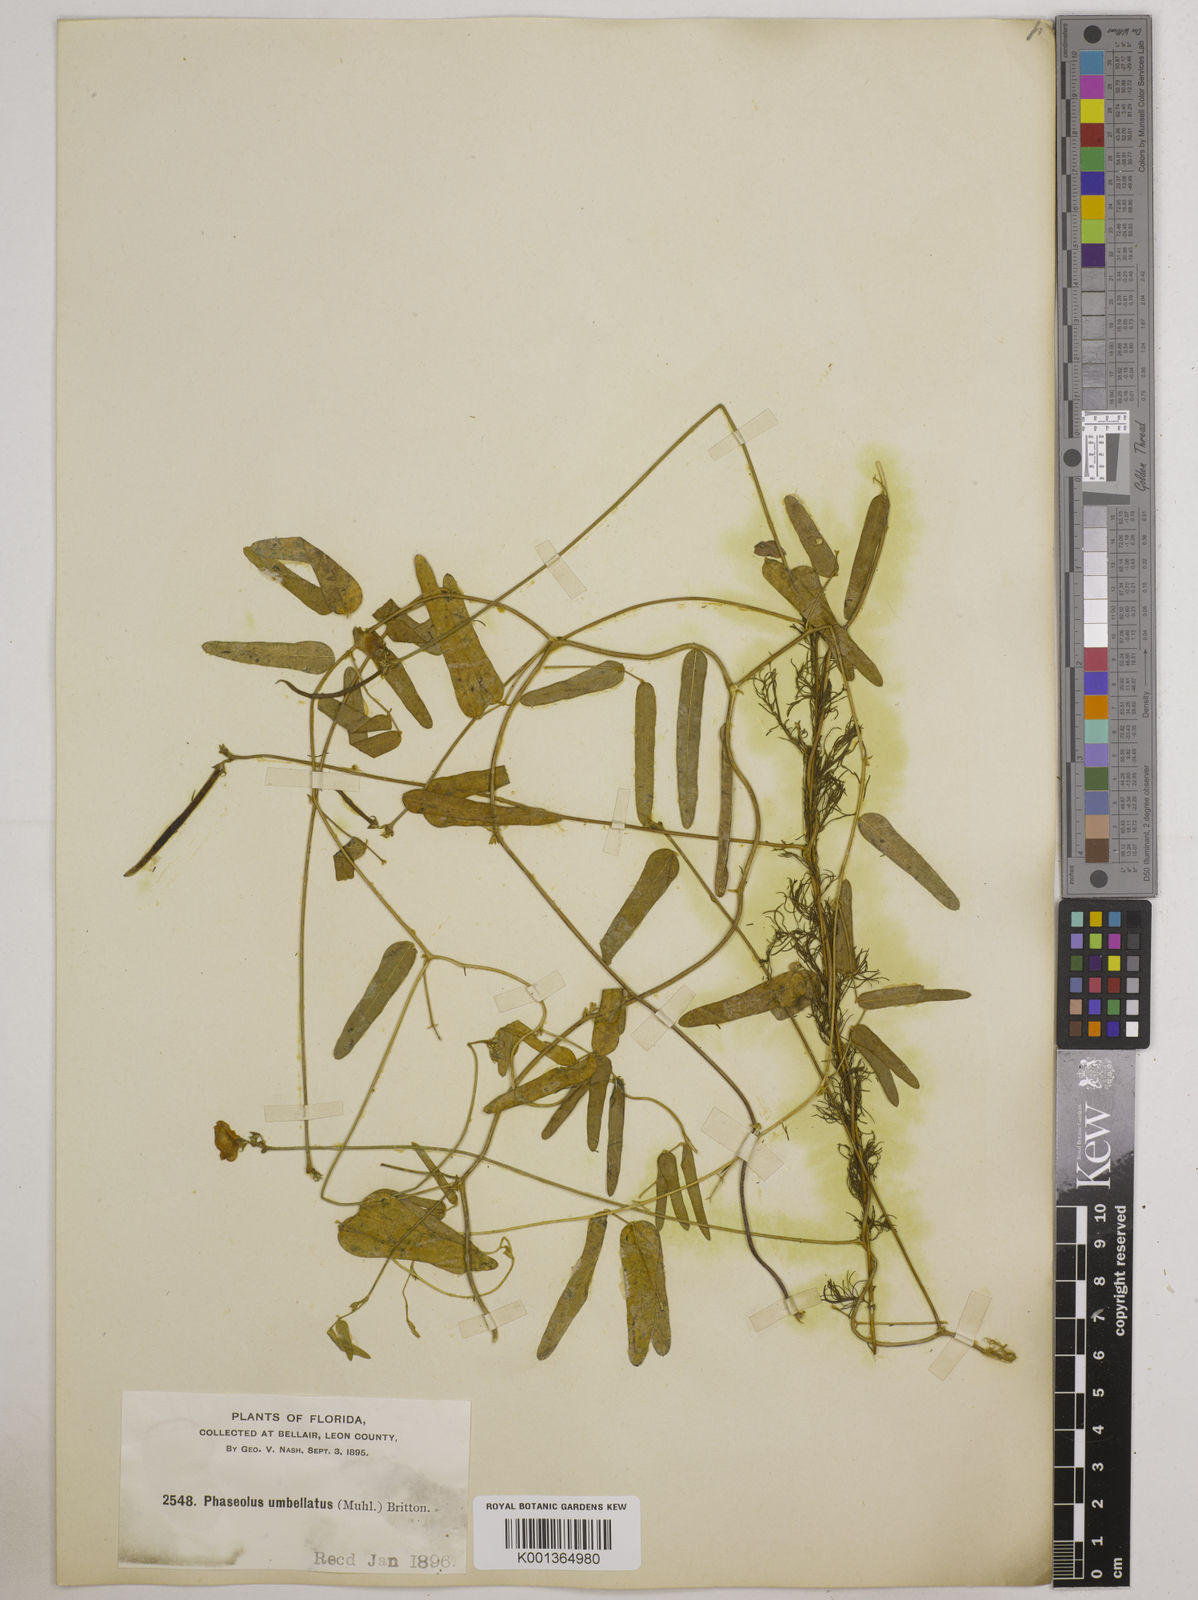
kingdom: Plantae
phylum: Tracheophyta
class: Magnoliopsida
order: Fabales
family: Fabaceae
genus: Strophostyles
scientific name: Strophostyles umbellata
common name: Perennial wild bean
